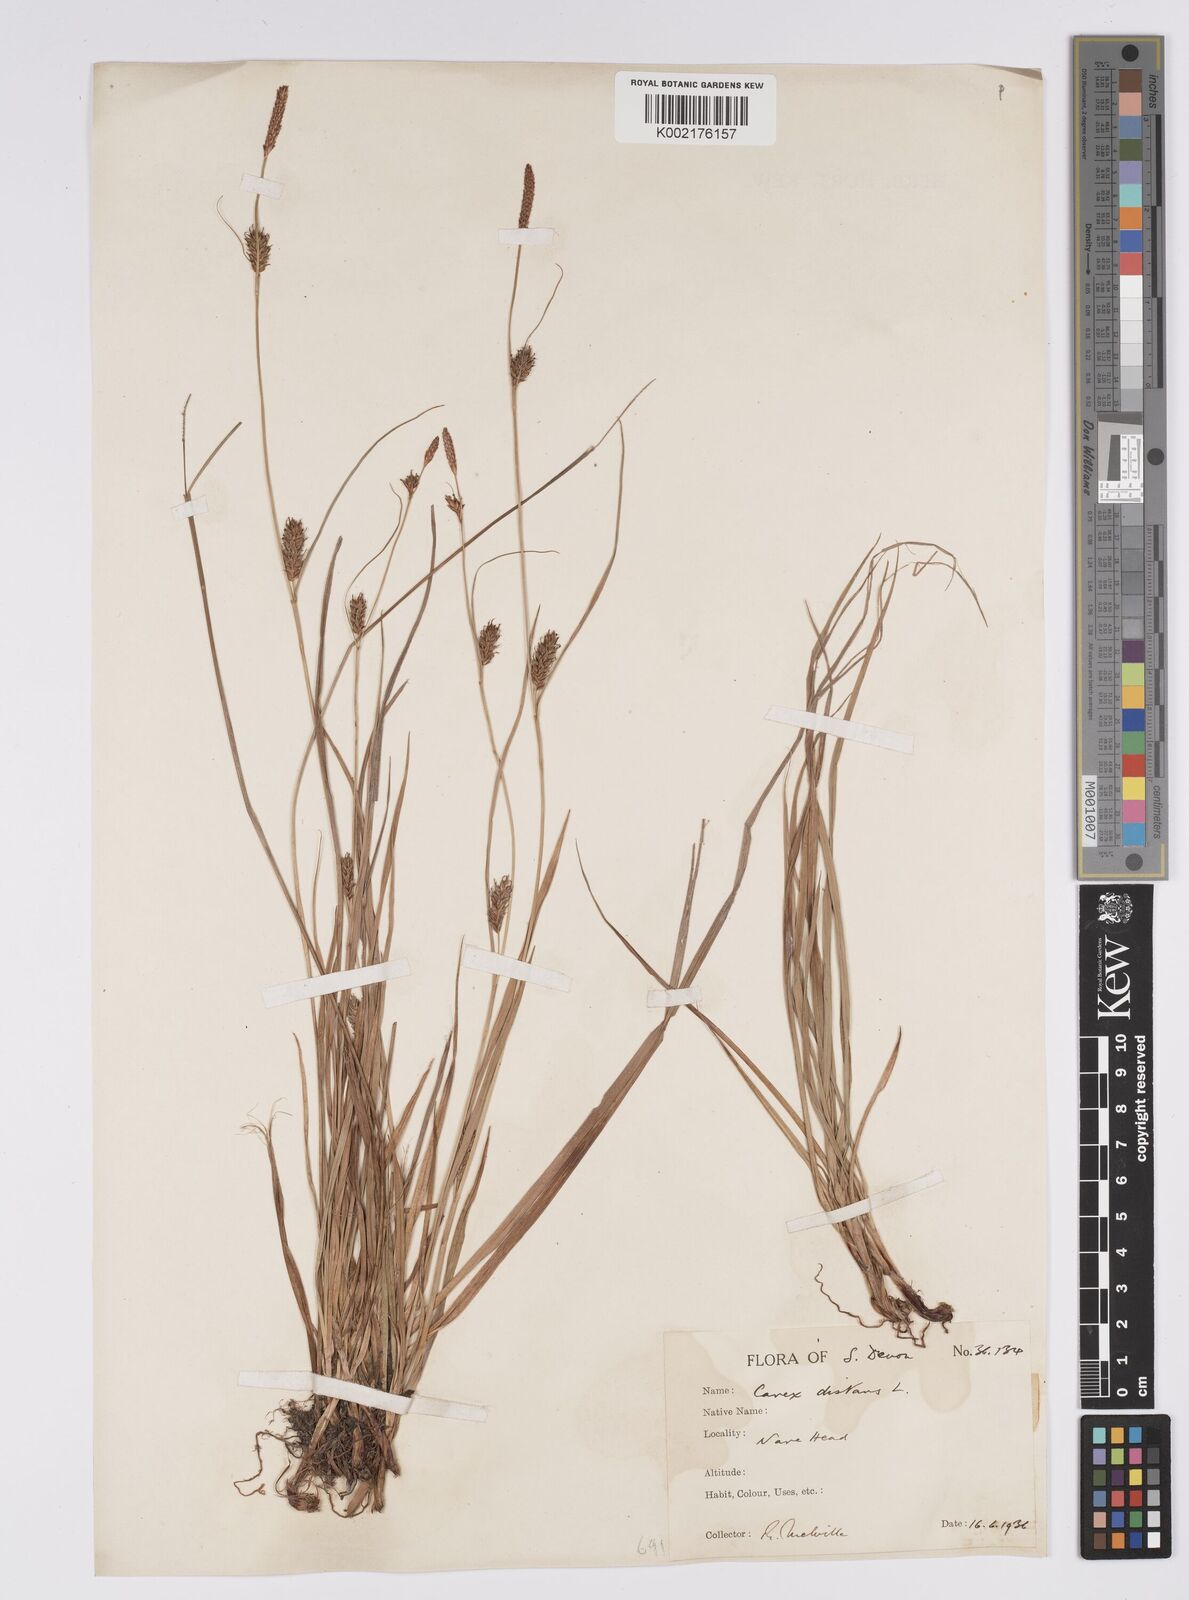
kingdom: Plantae
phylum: Tracheophyta
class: Liliopsida
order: Poales
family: Cyperaceae
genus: Carex
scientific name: Carex distans
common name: Distant sedge
